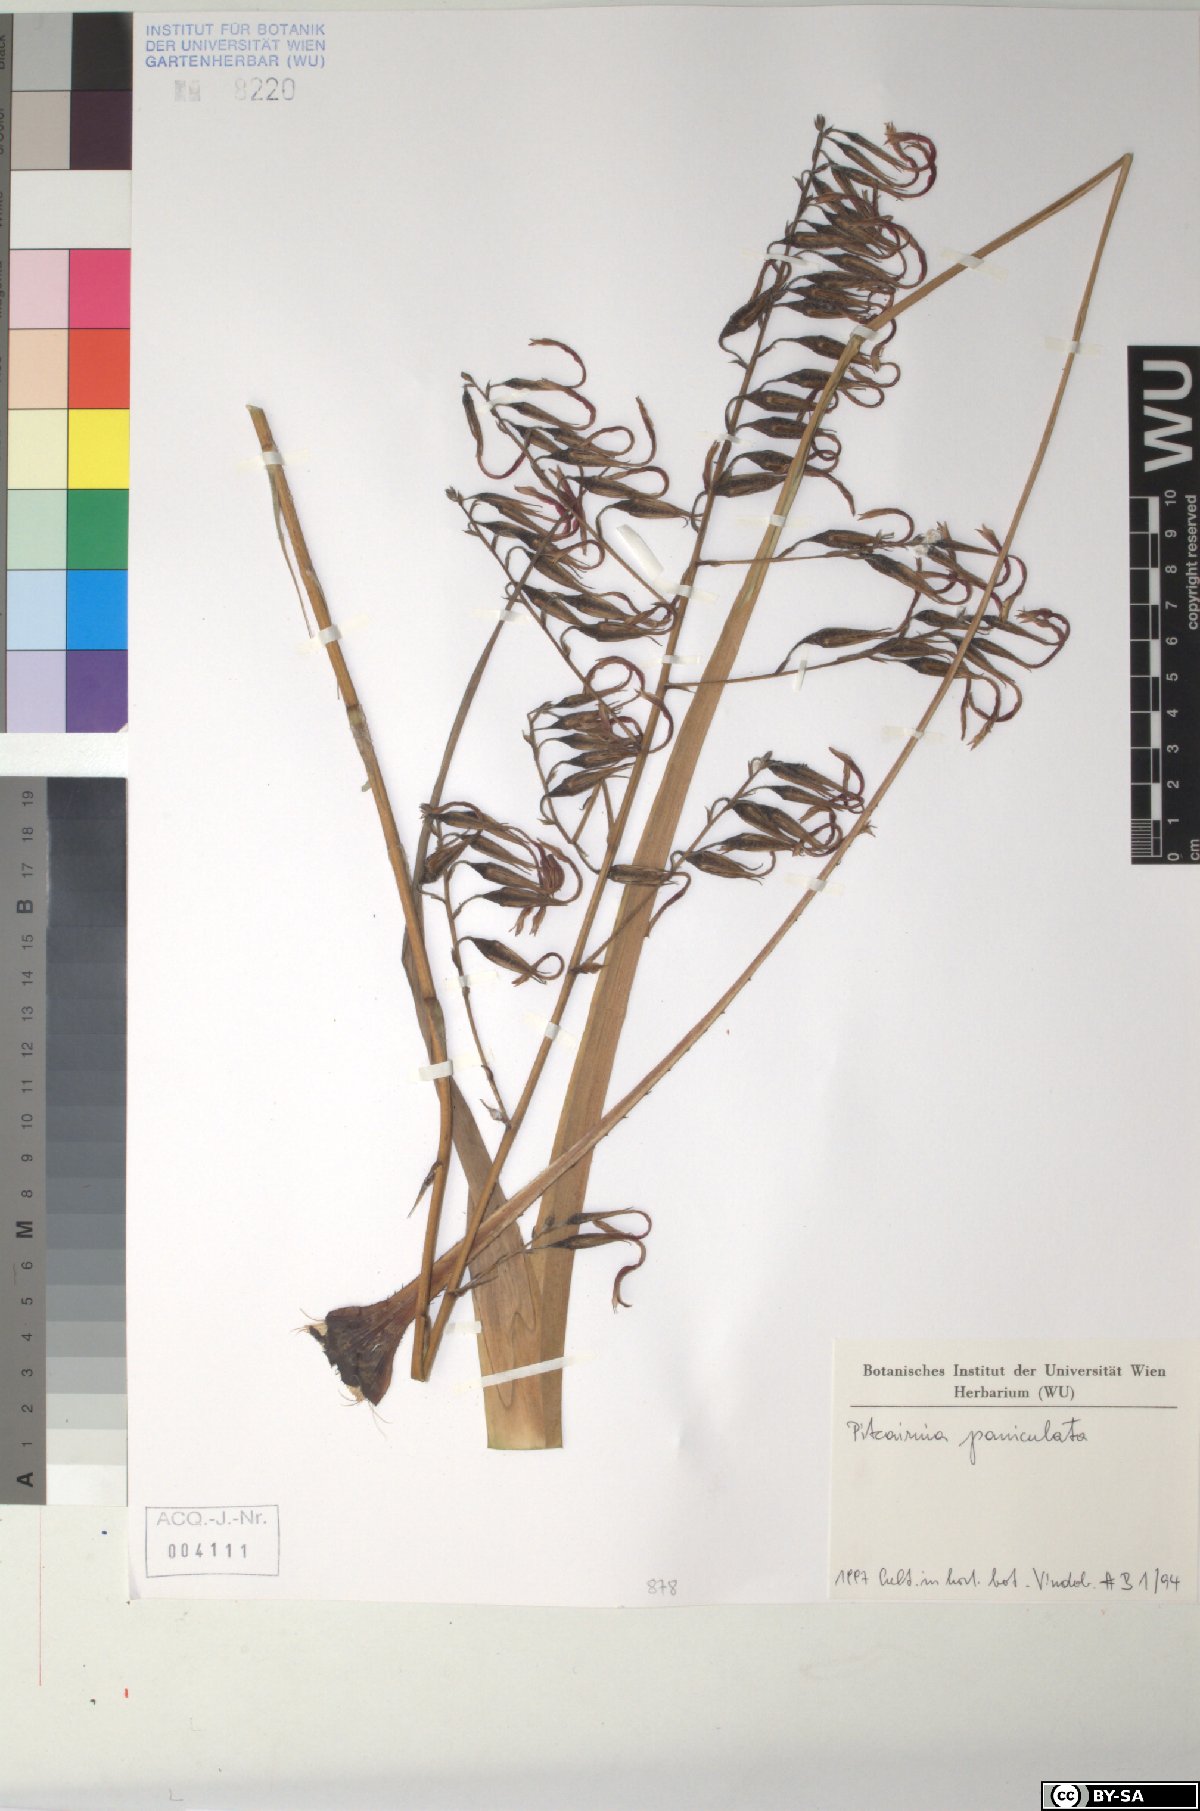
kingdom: Plantae
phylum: Tracheophyta
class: Liliopsida
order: Poales
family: Bromeliaceae
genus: Pitcairnia
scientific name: Pitcairnia paniculata
